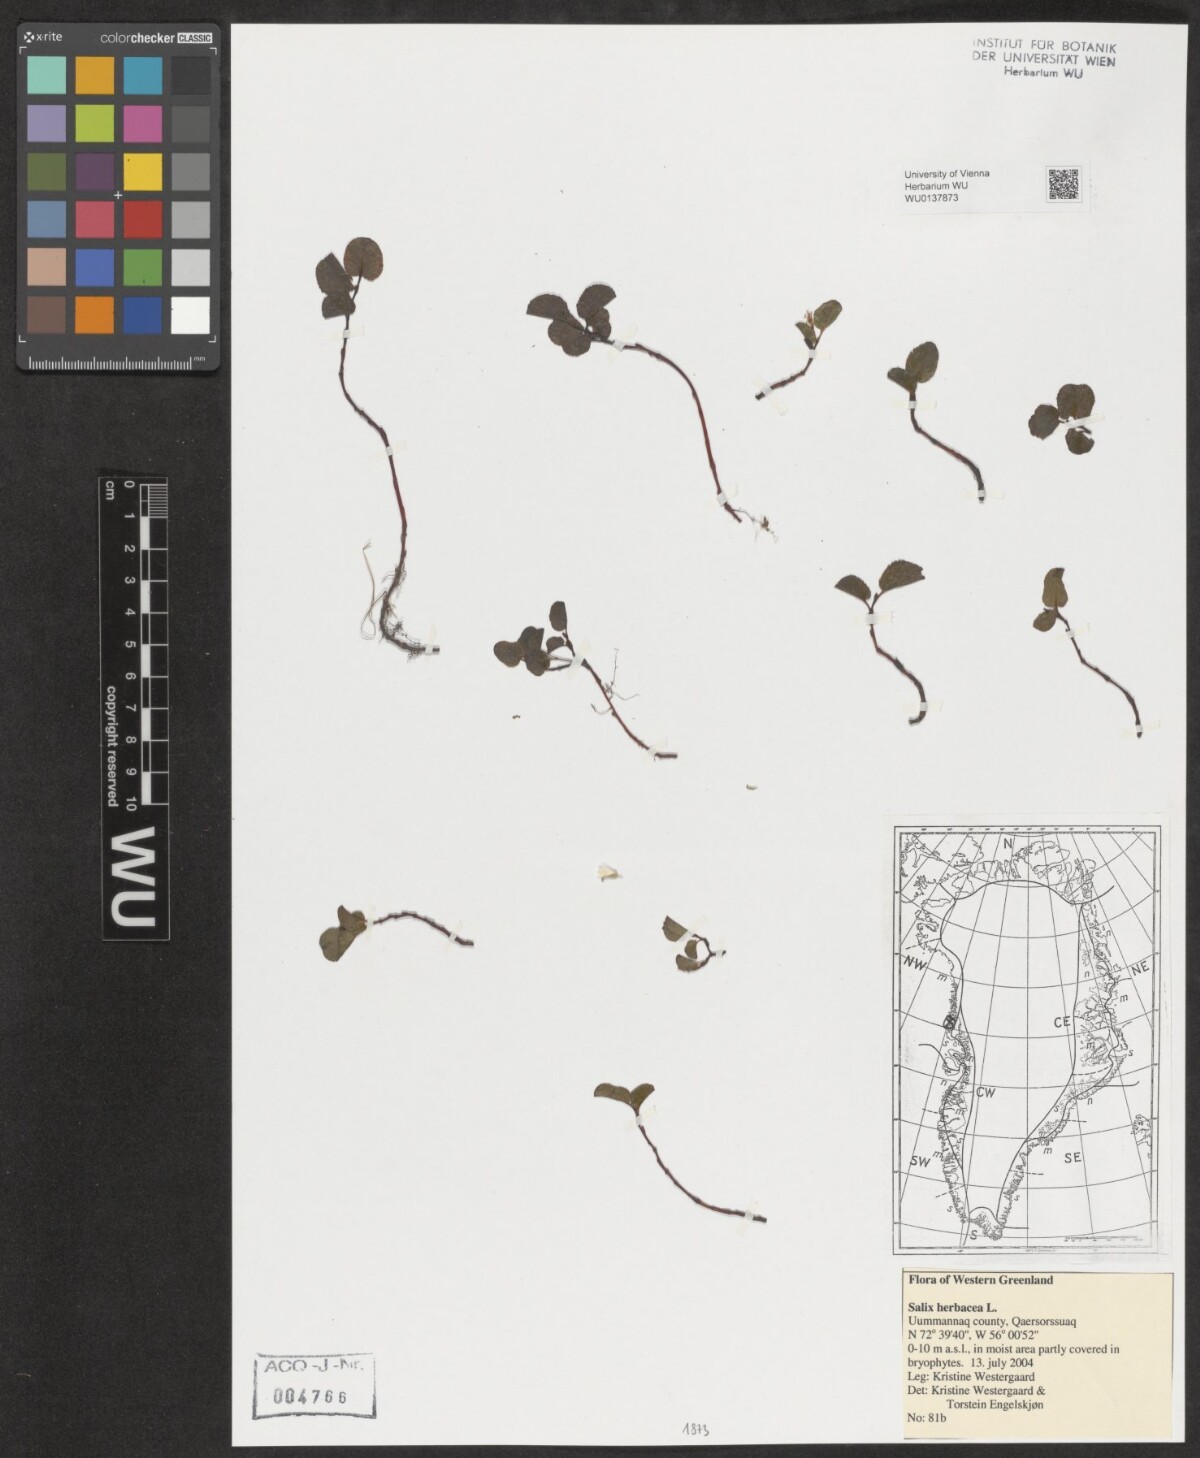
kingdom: Plantae
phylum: Tracheophyta
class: Magnoliopsida
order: Malpighiales
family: Salicaceae
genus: Salix
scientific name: Salix herbacea
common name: Dwarf willow
